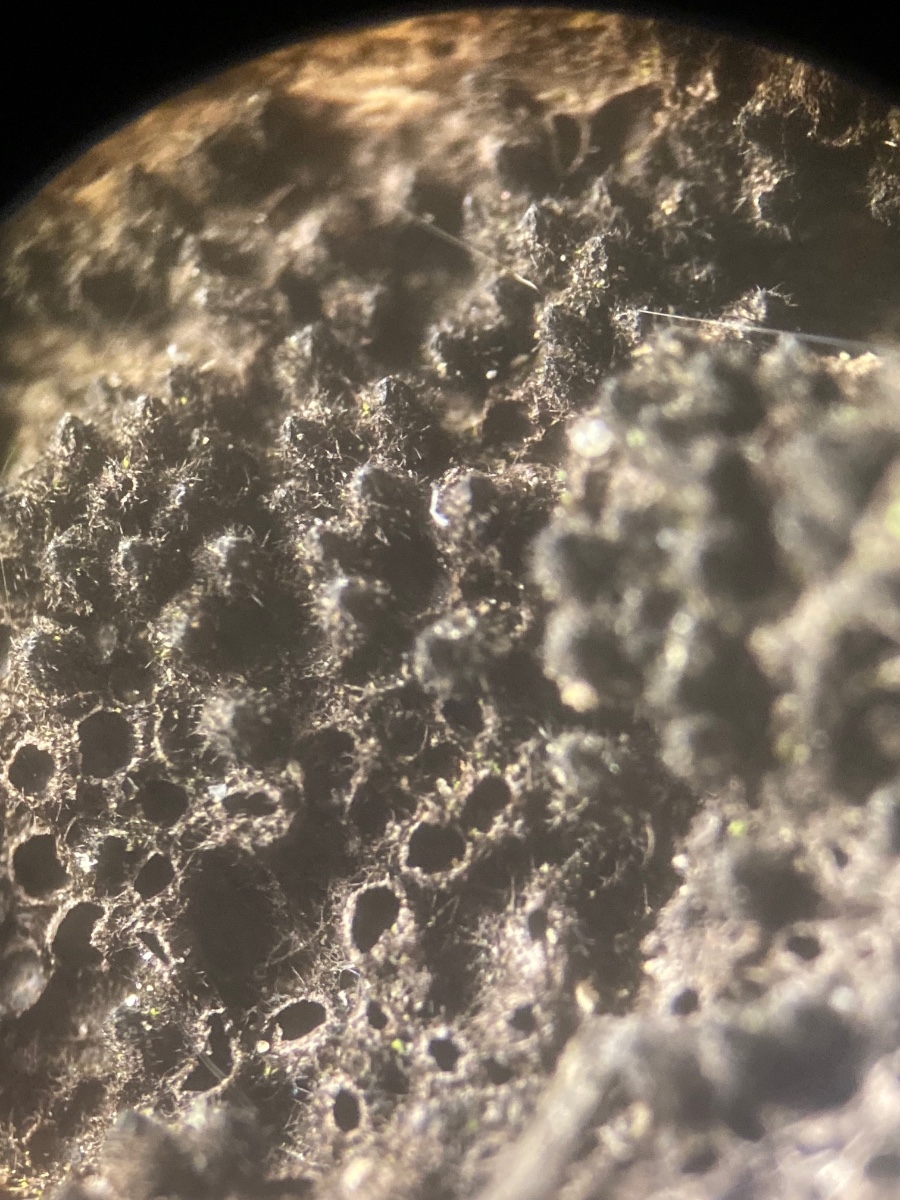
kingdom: Fungi
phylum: Ascomycota
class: Sordariomycetes
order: Sordariales
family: Lasiosphaeridaceae
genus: Lasiosphaeris
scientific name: Lasiosphaeris hirsuta
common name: sorthåret kernesvamp
